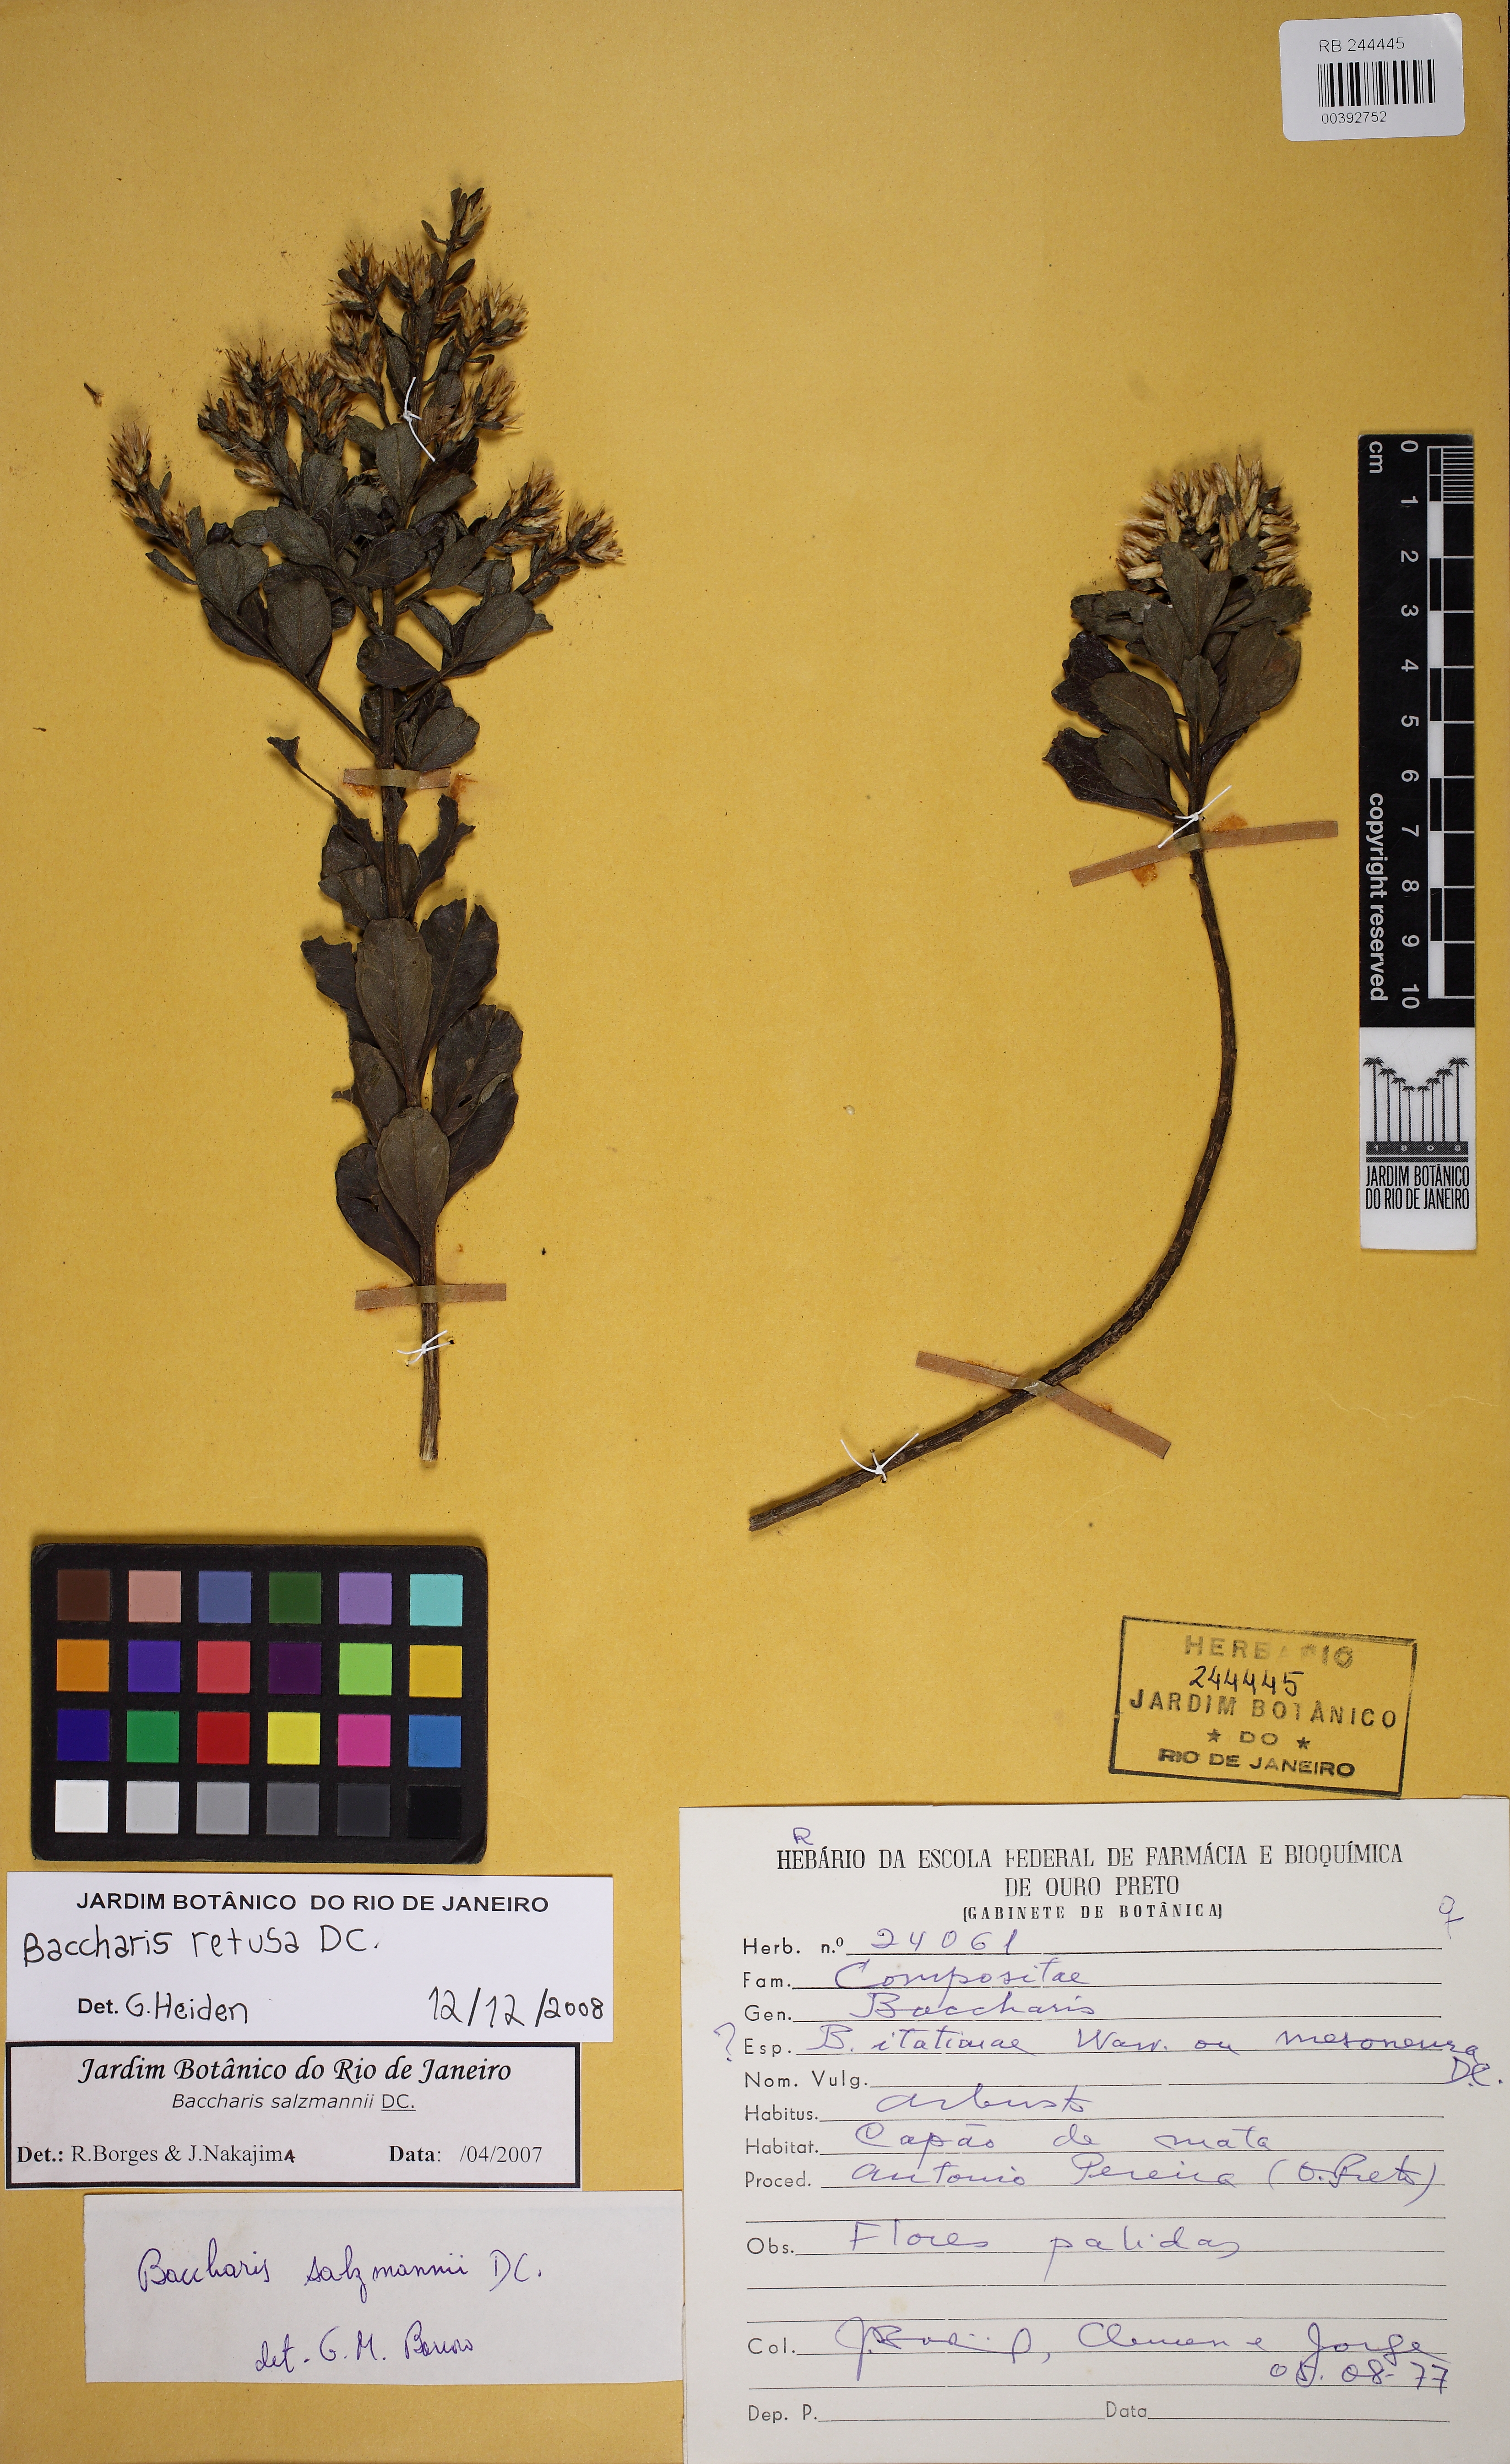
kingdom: Plantae
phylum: Tracheophyta
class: Magnoliopsida
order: Asterales
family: Asteraceae
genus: Baccharis
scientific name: Baccharis retusa
